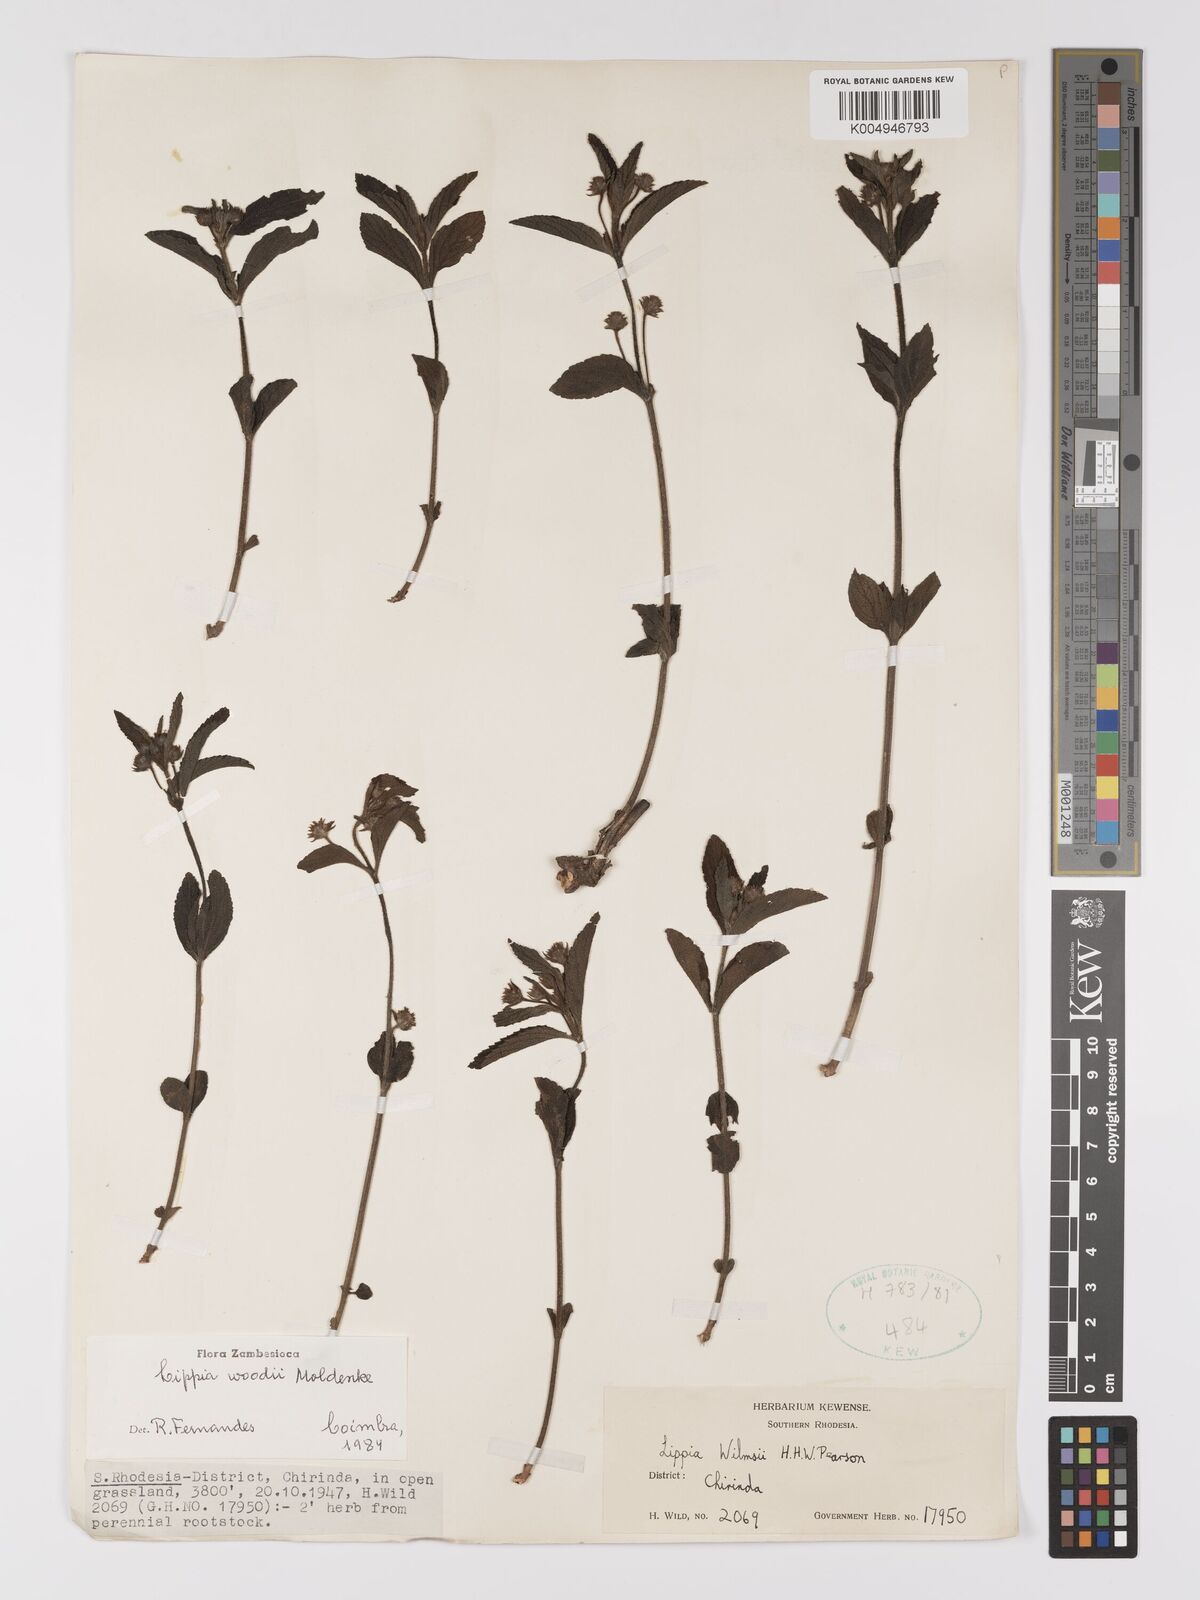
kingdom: Plantae
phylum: Tracheophyta
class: Magnoliopsida
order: Lamiales
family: Verbenaceae
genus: Lippia
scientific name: Lippia woodii
